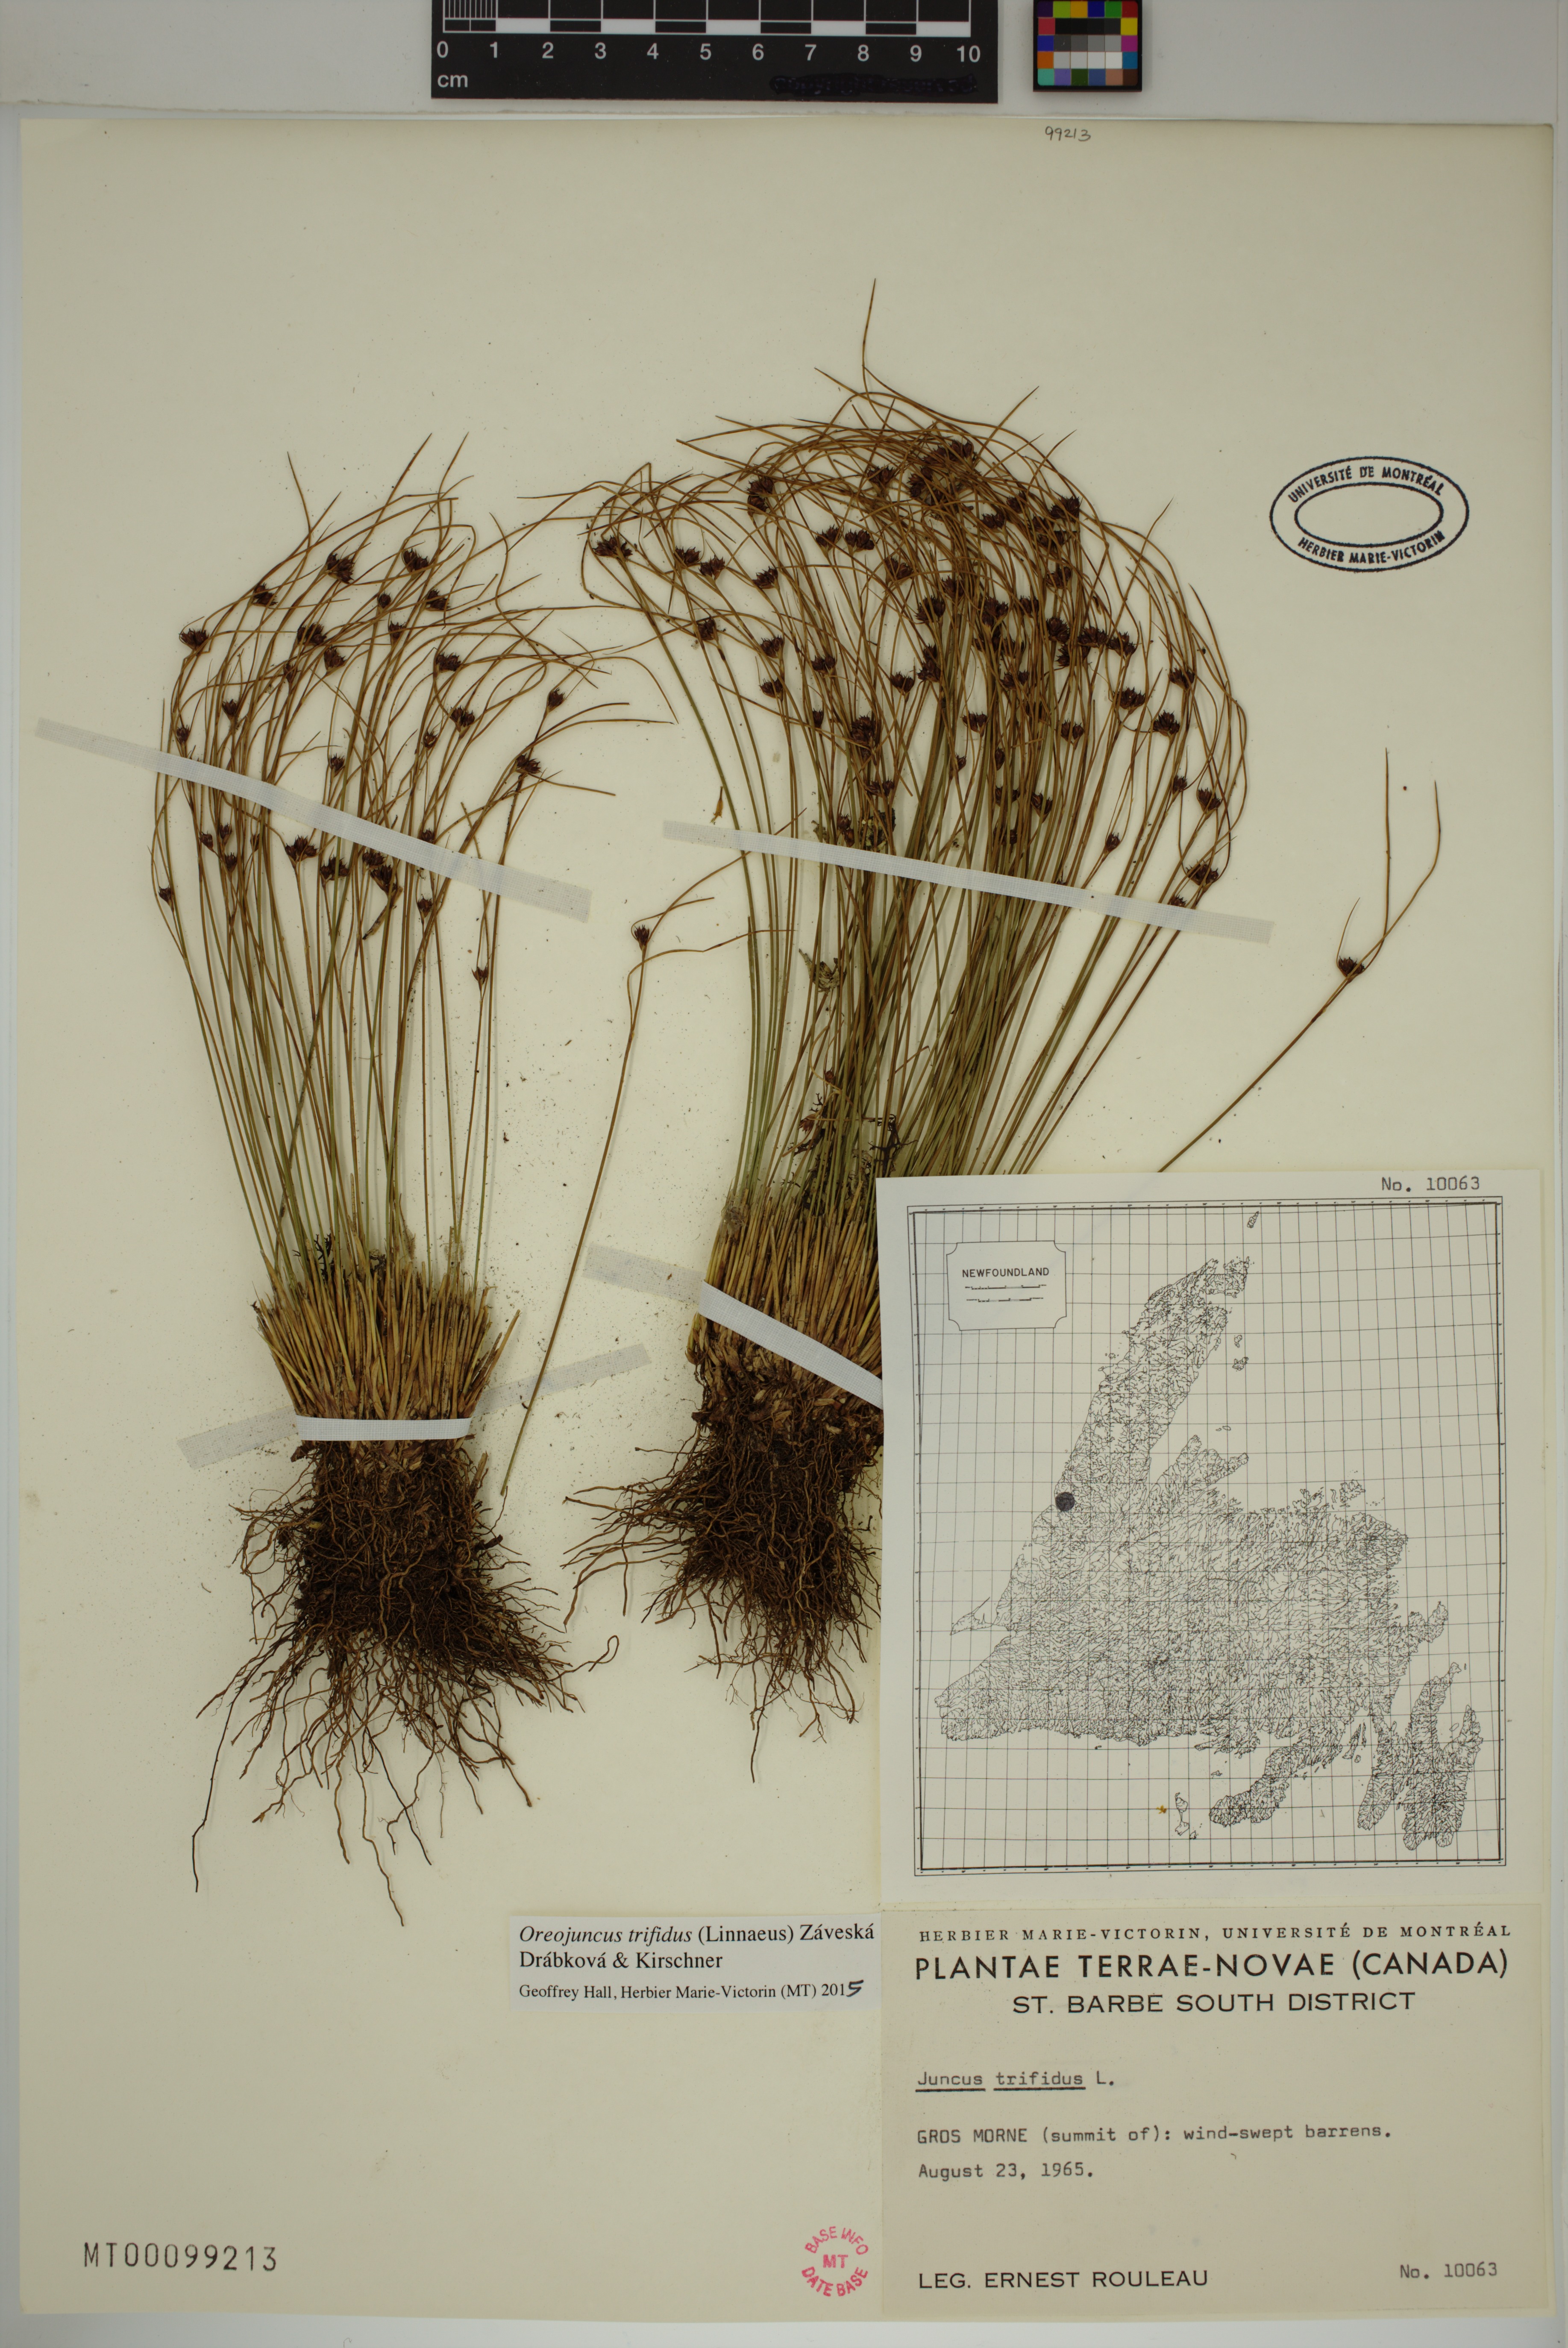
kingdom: Plantae
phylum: Tracheophyta
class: Liliopsida
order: Poales
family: Juncaceae
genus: Oreojuncus
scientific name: Oreojuncus trifidus
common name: Highland rush
